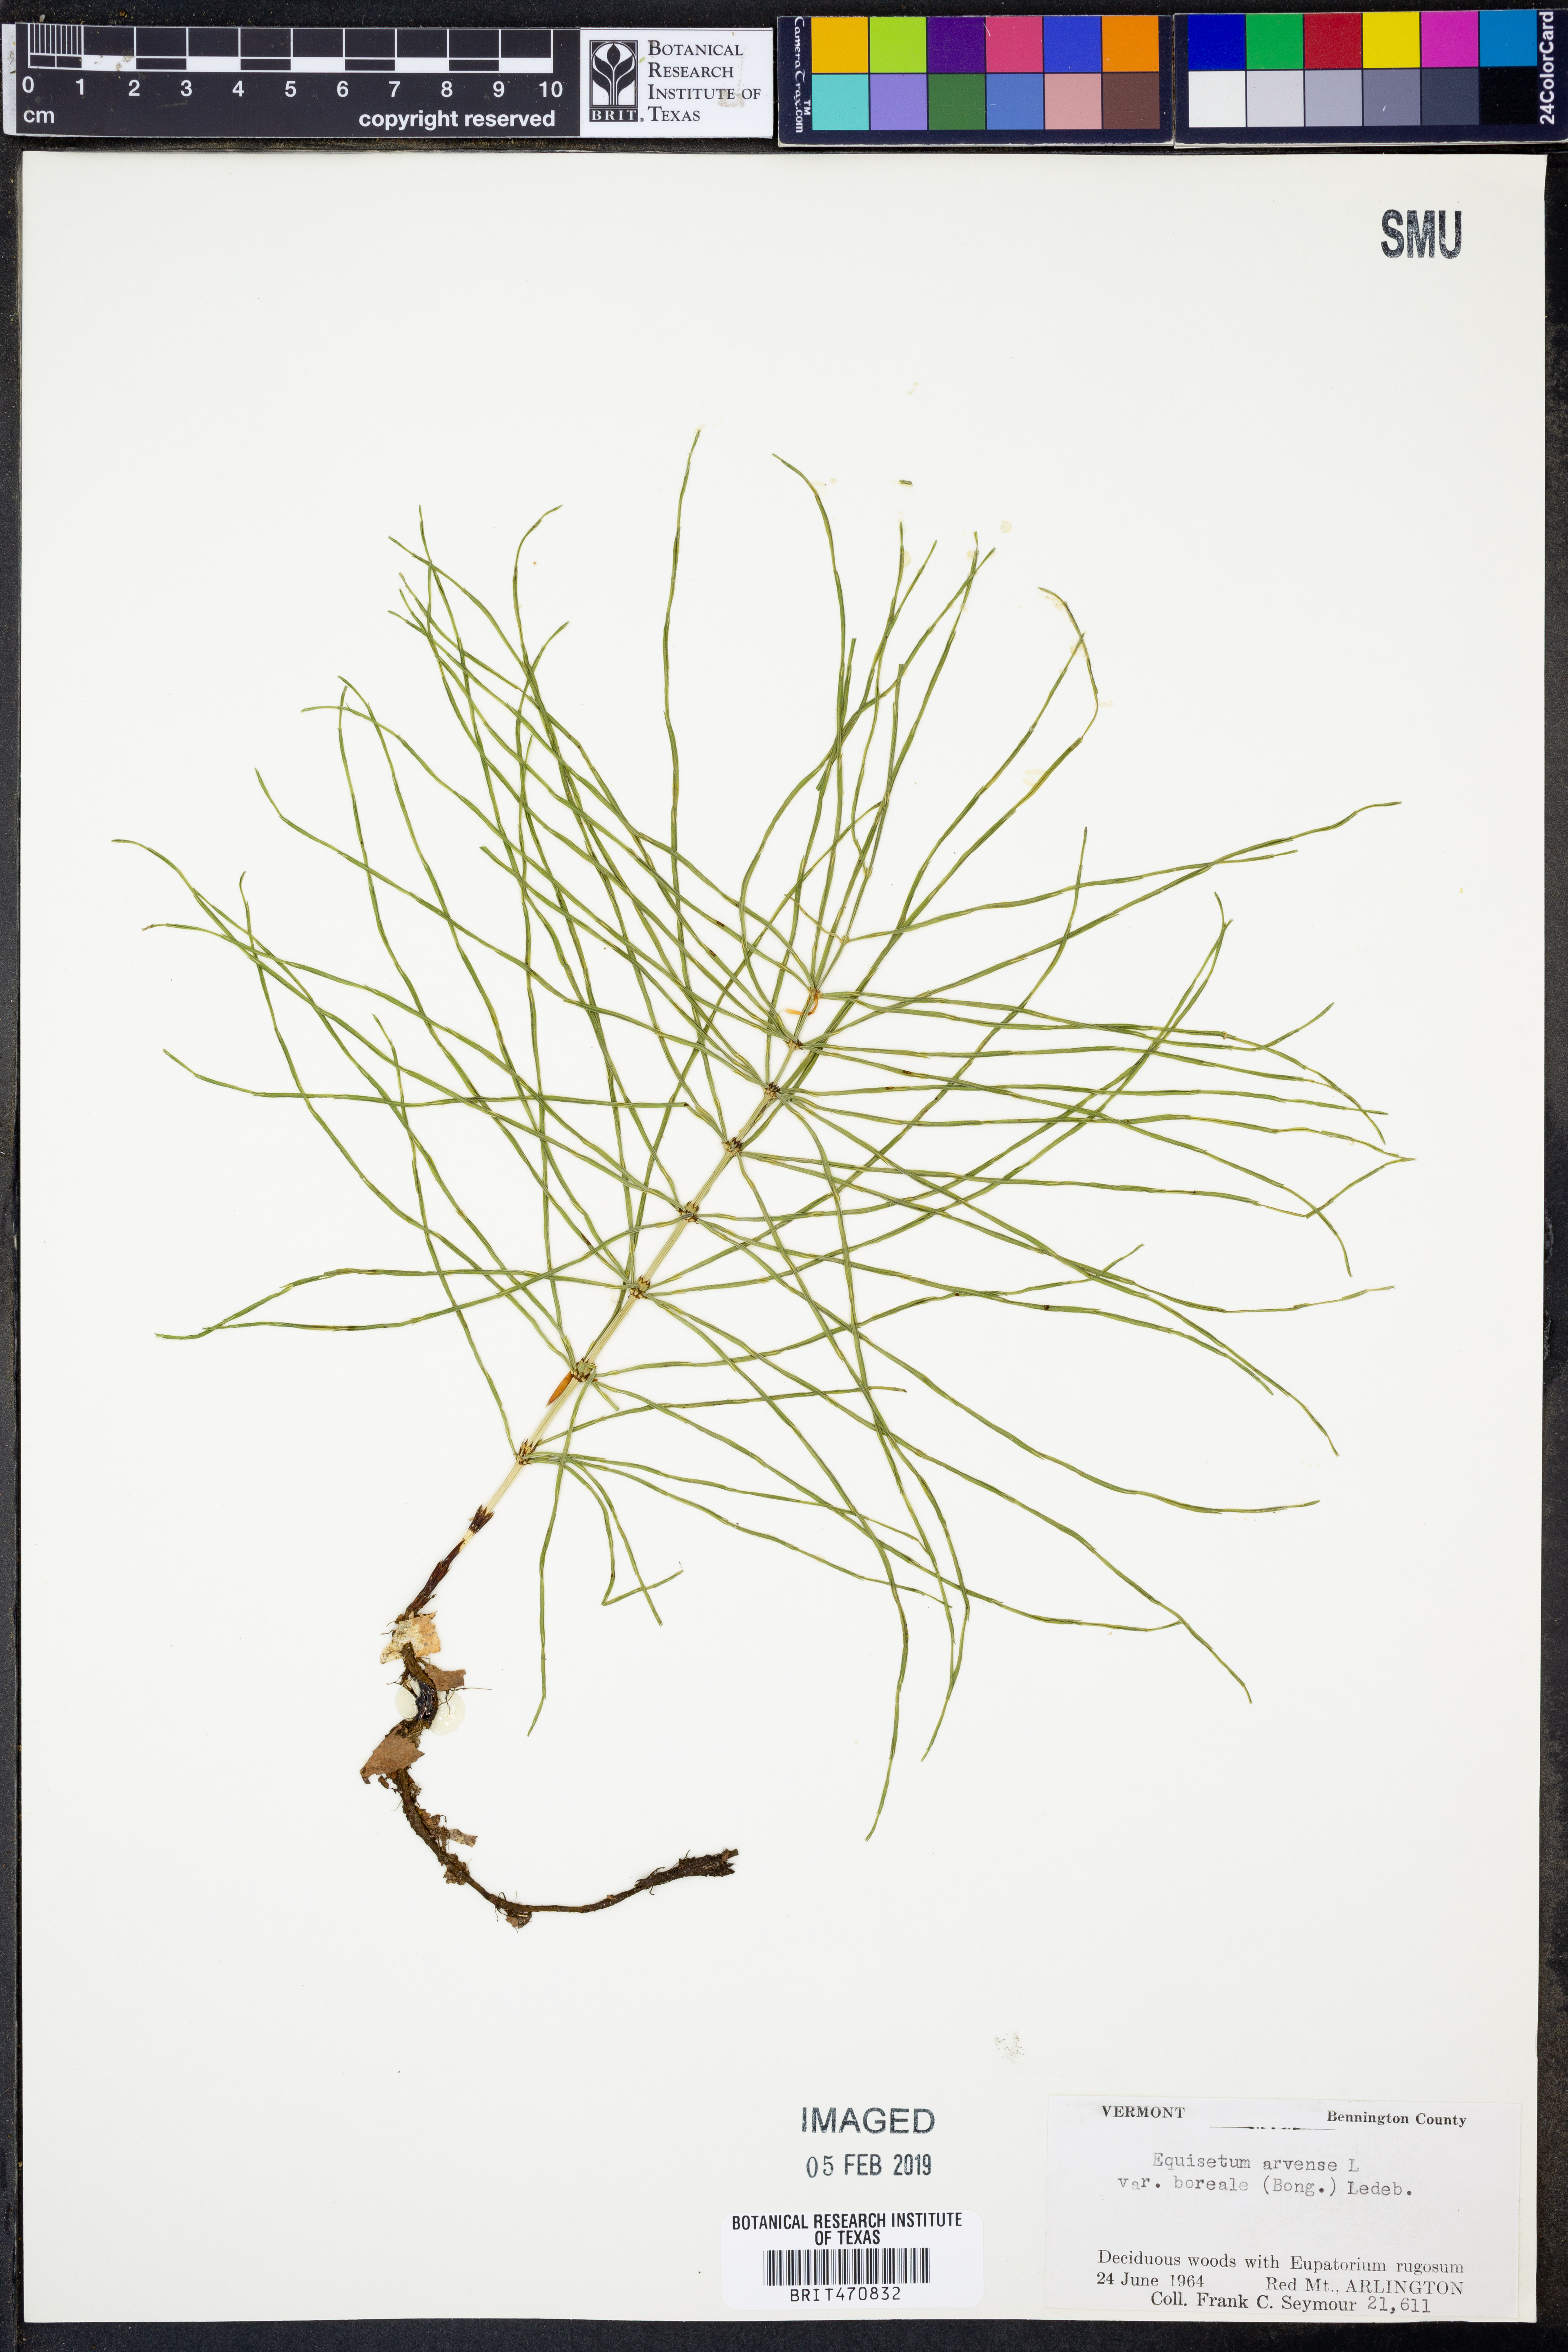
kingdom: Plantae
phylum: Tracheophyta
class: Polypodiopsida
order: Equisetales
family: Equisetaceae
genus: Equisetum
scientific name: Equisetum arvense
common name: Field horsetail
